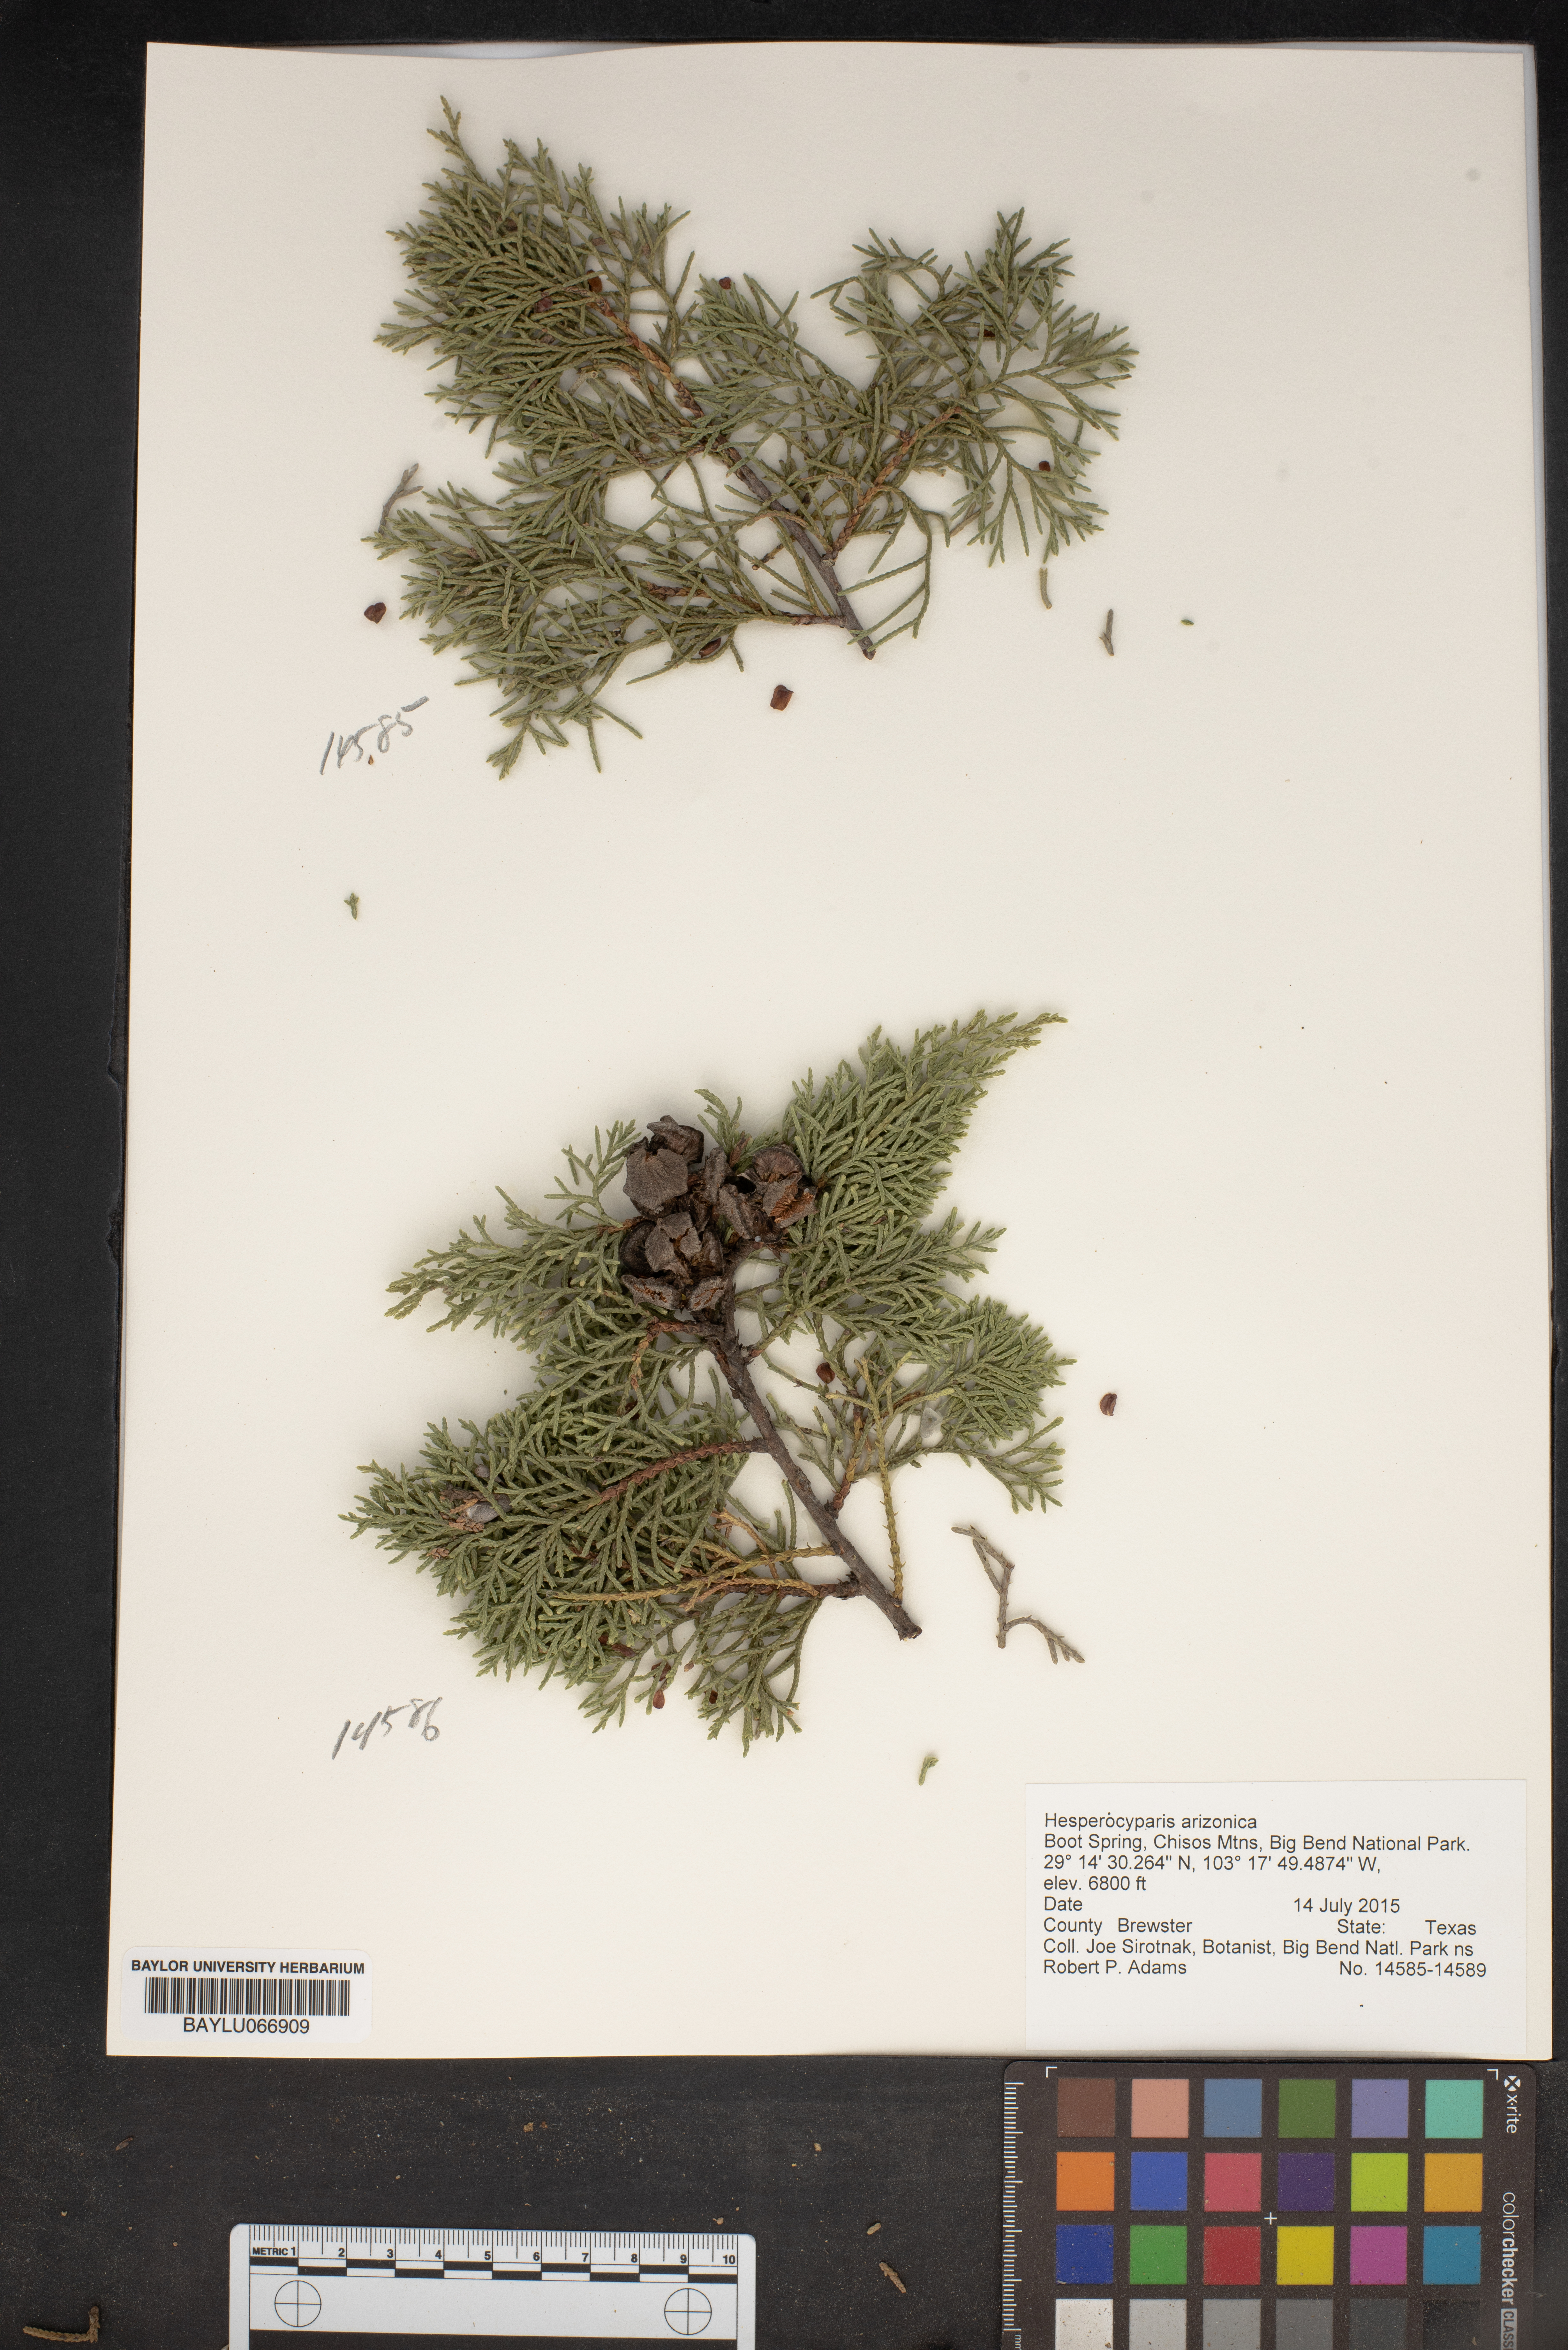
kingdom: Plantae
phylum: Tracheophyta
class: Pinopsida
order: Pinales
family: Cupressaceae
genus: Cupressus
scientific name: Cupressus arizonica
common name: Arizona cypress
